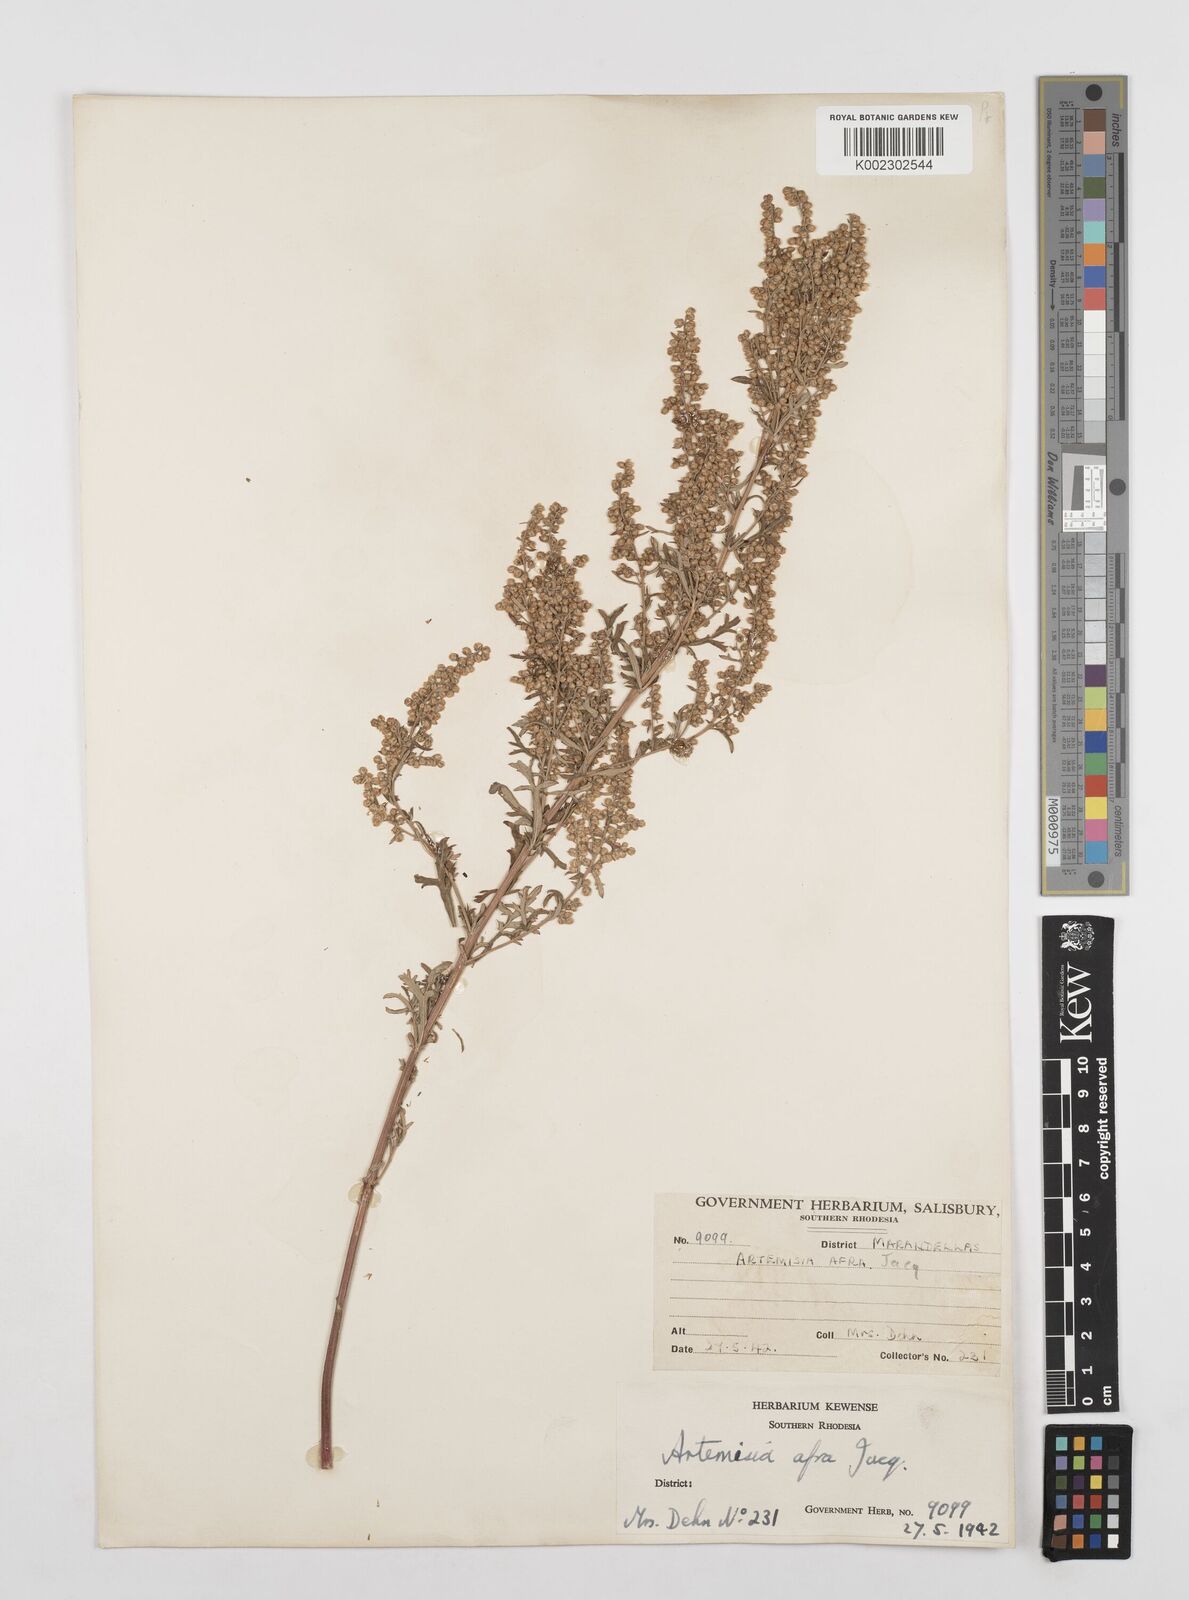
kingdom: Plantae
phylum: Tracheophyta
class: Magnoliopsida
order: Asterales
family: Asteraceae
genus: Artemisia
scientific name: Artemisia afra
